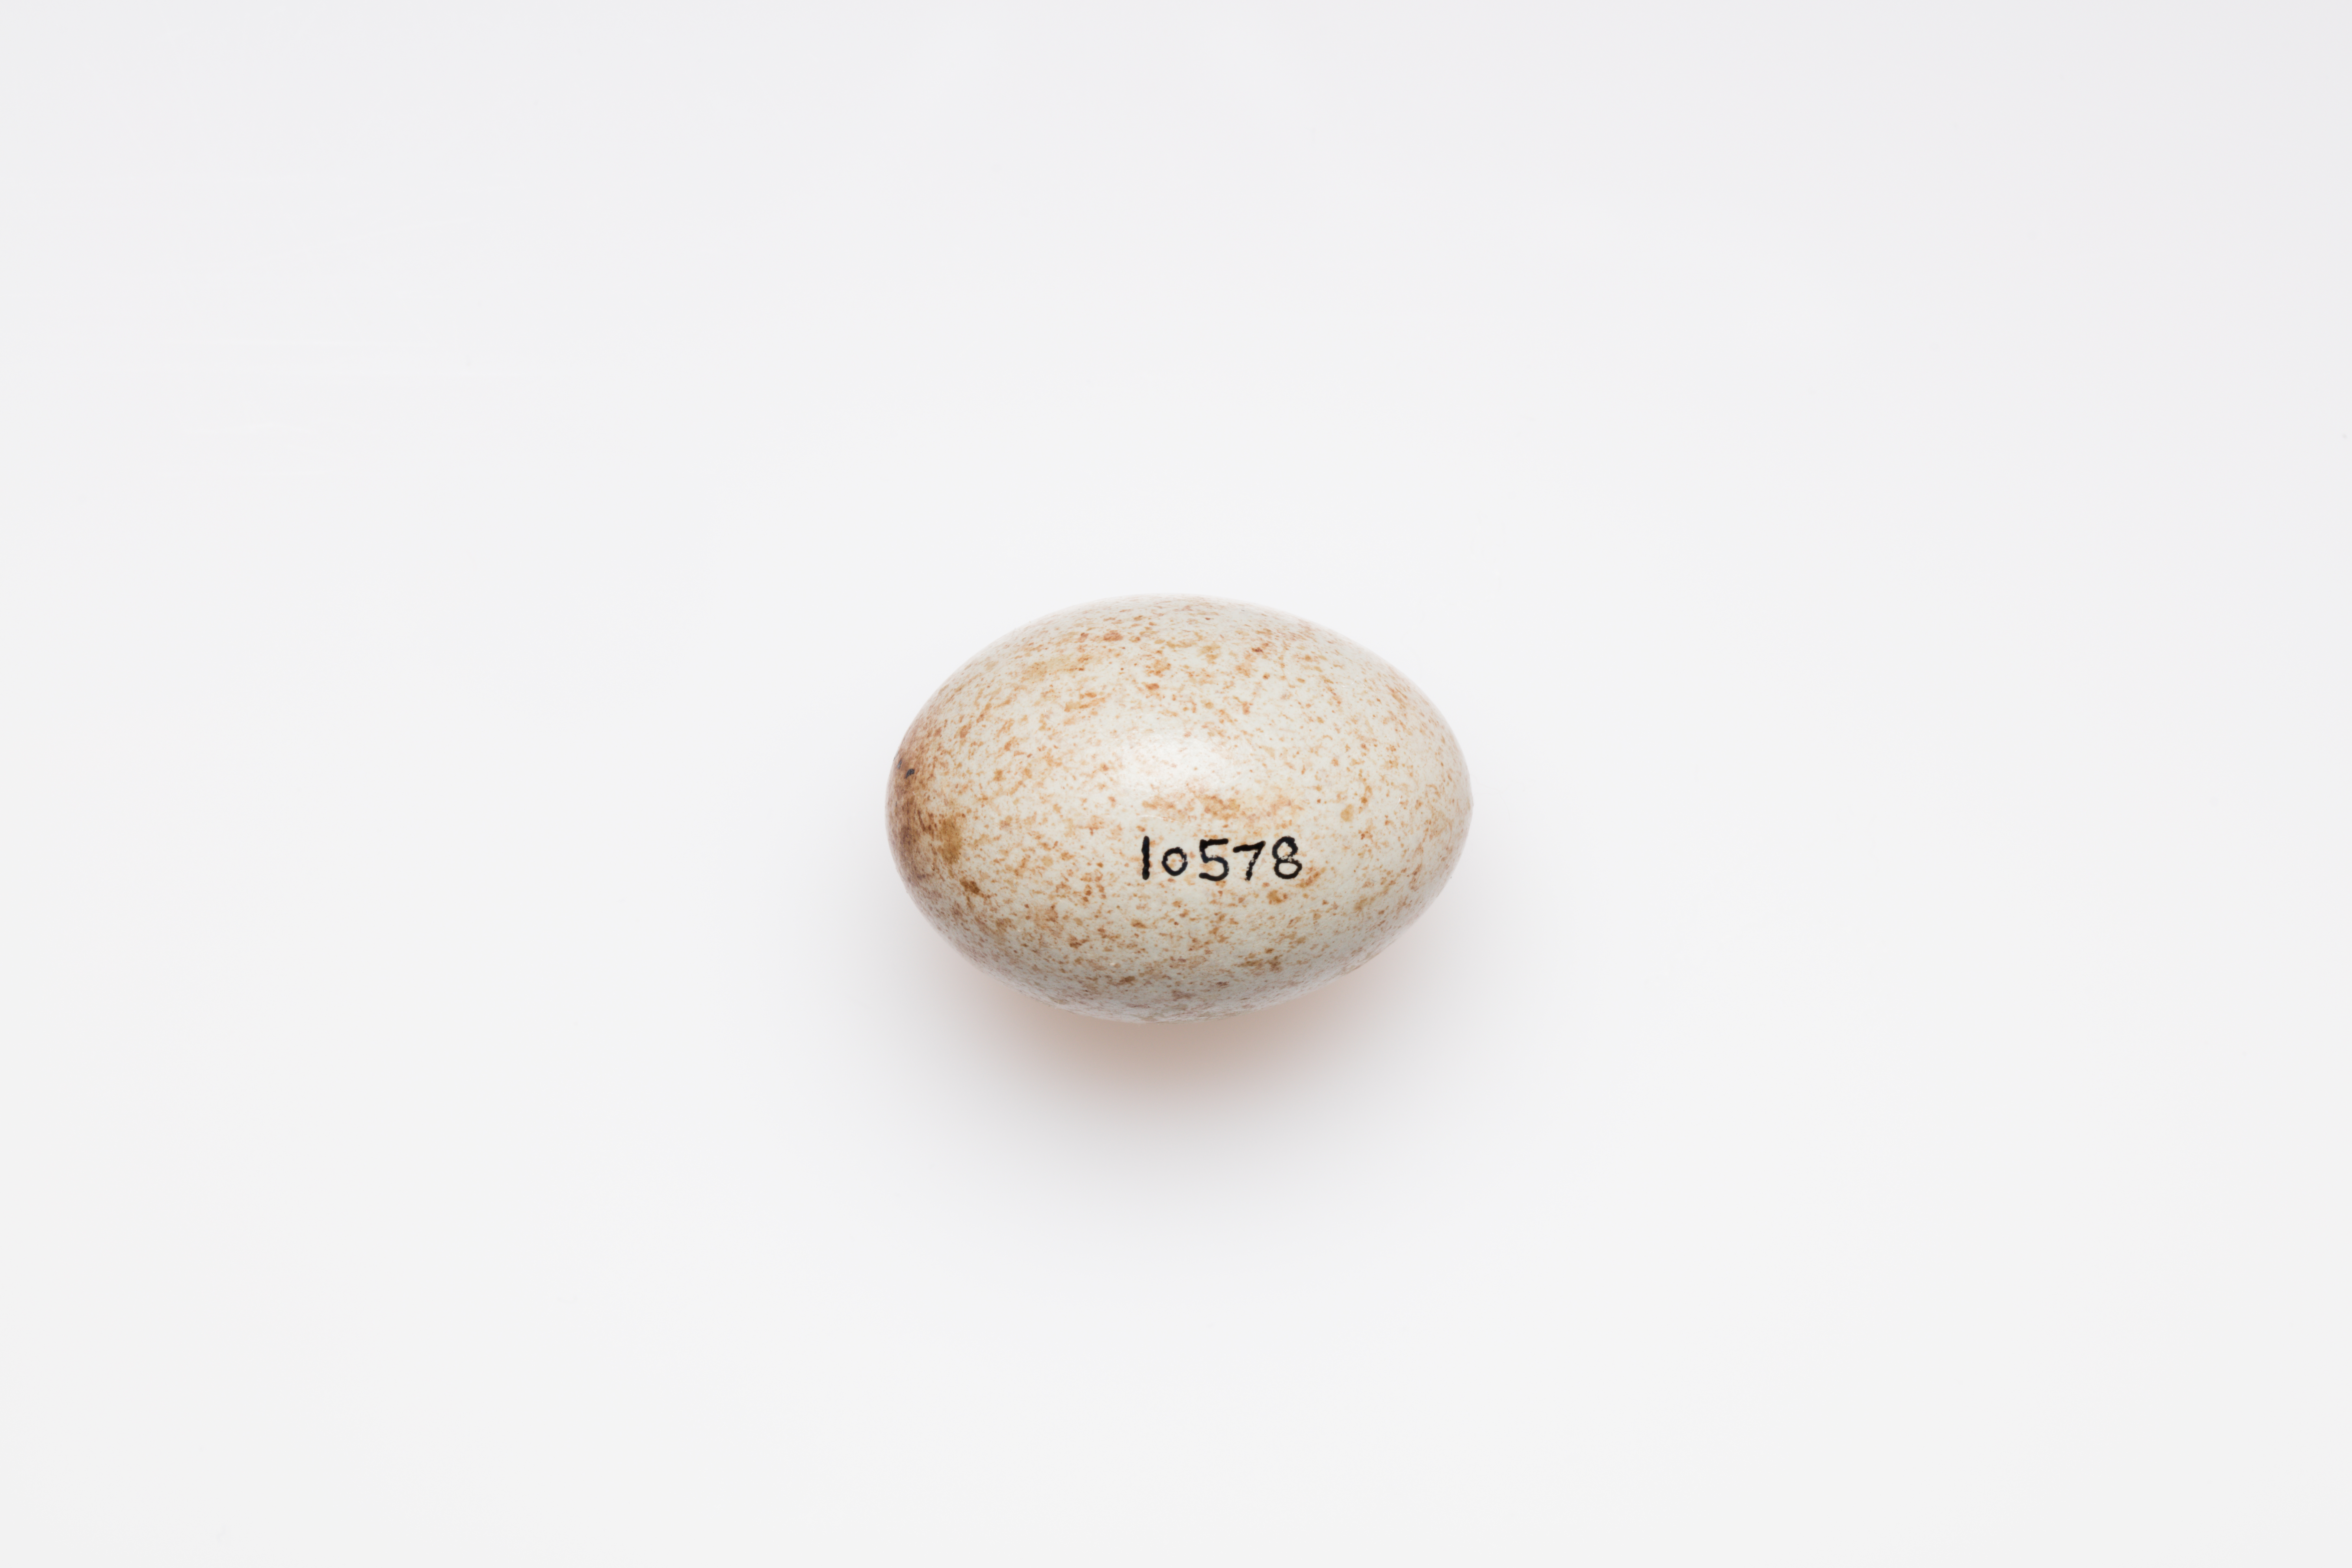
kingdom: Animalia
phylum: Chordata
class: Aves
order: Passeriformes
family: Turdidae
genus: Turdus
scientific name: Turdus pilaris
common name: Fieldfare
